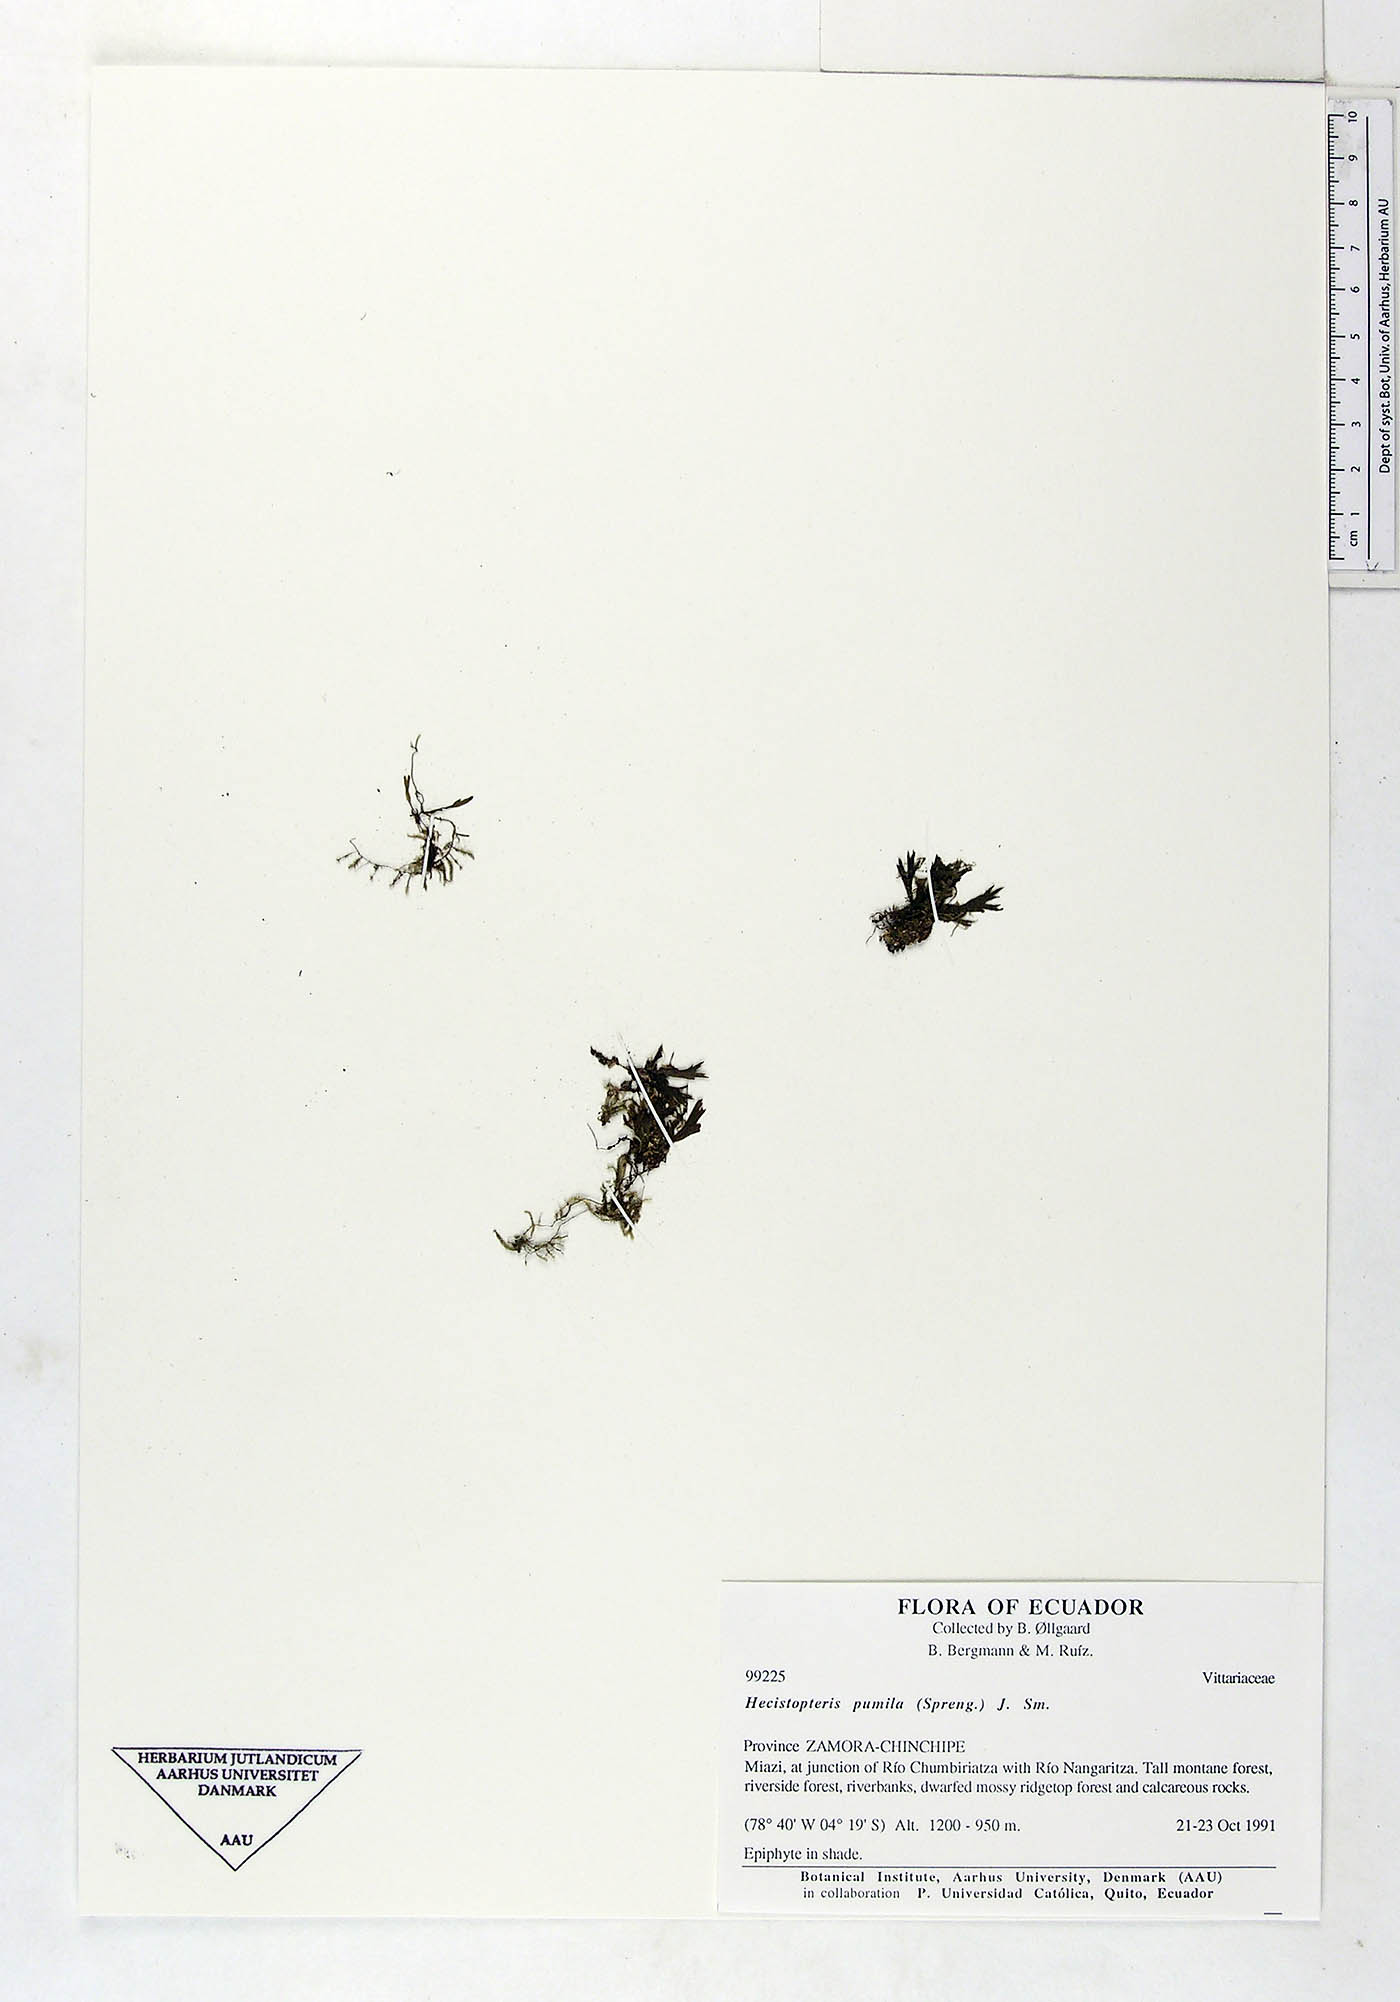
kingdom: Plantae
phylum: Tracheophyta
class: Polypodiopsida
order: Polypodiales
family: Pteridaceae
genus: Hecistopteris
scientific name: Hecistopteris pumila
